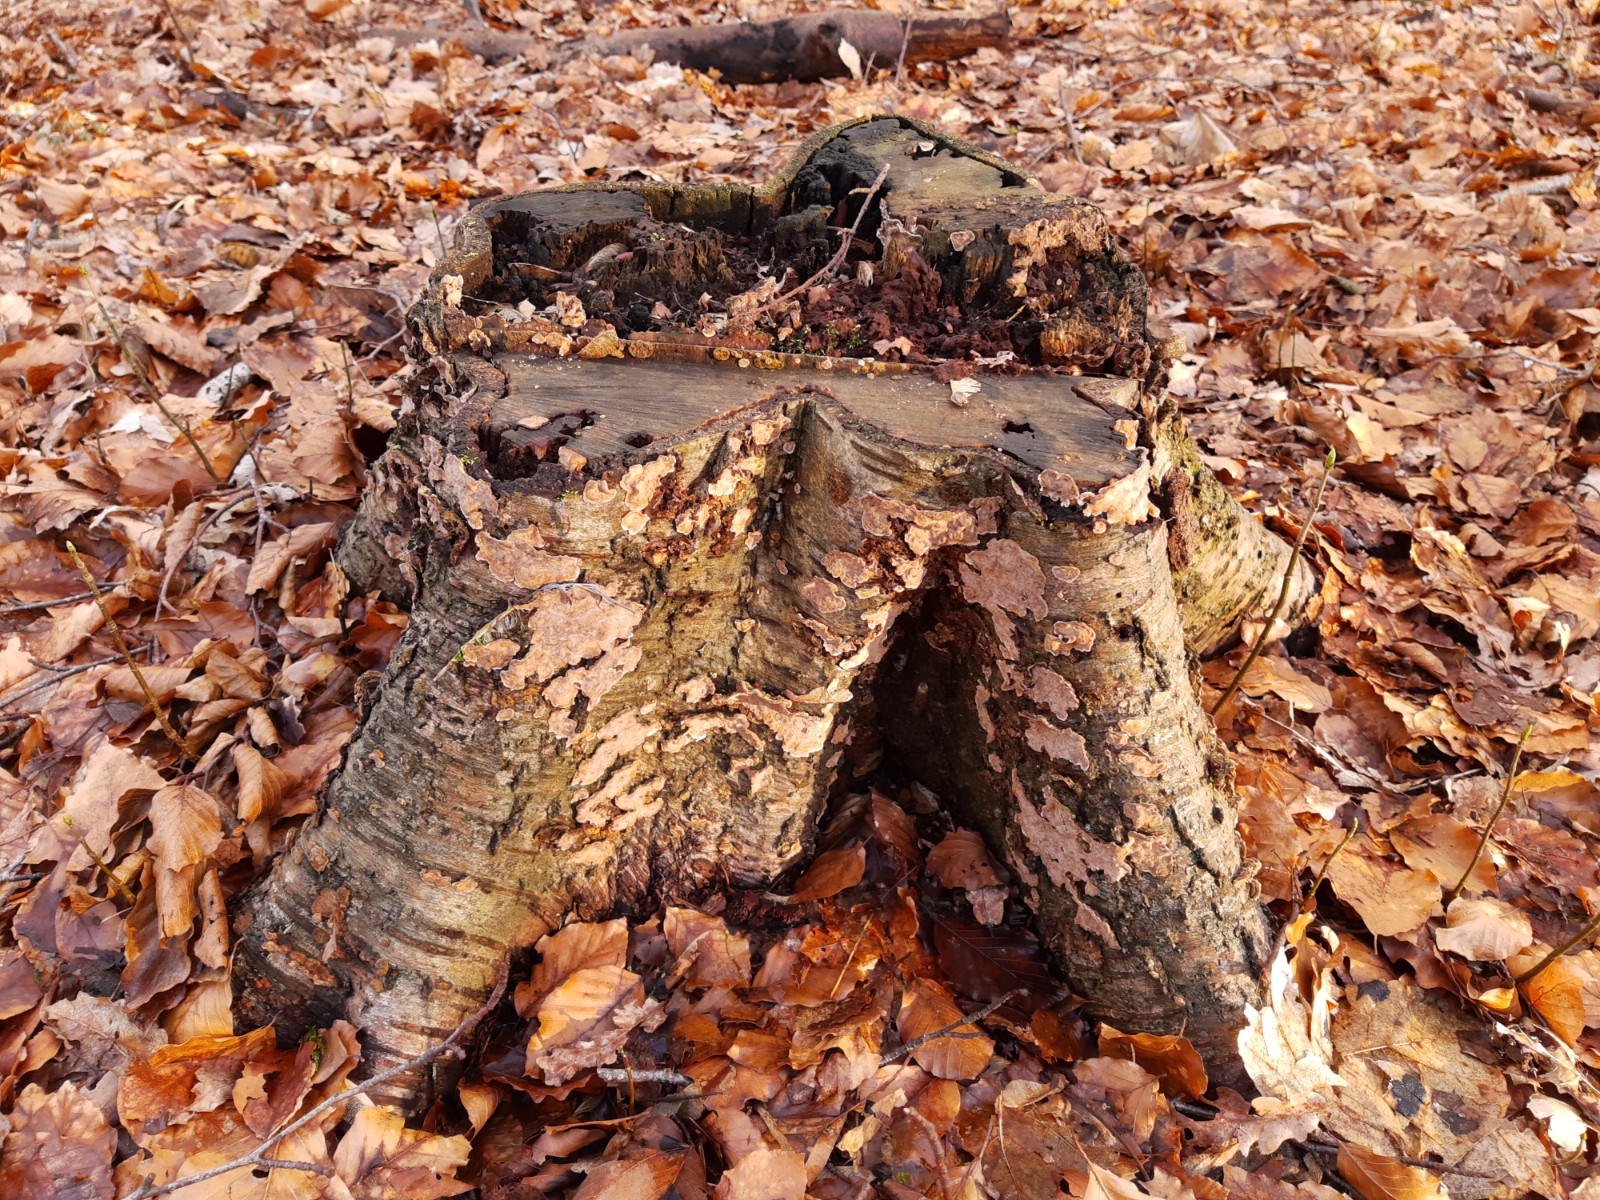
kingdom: Fungi
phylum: Basidiomycota
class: Agaricomycetes
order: Russulales
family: Stereaceae
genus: Stereum
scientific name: Stereum rugosum
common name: rynket lædersvamp
